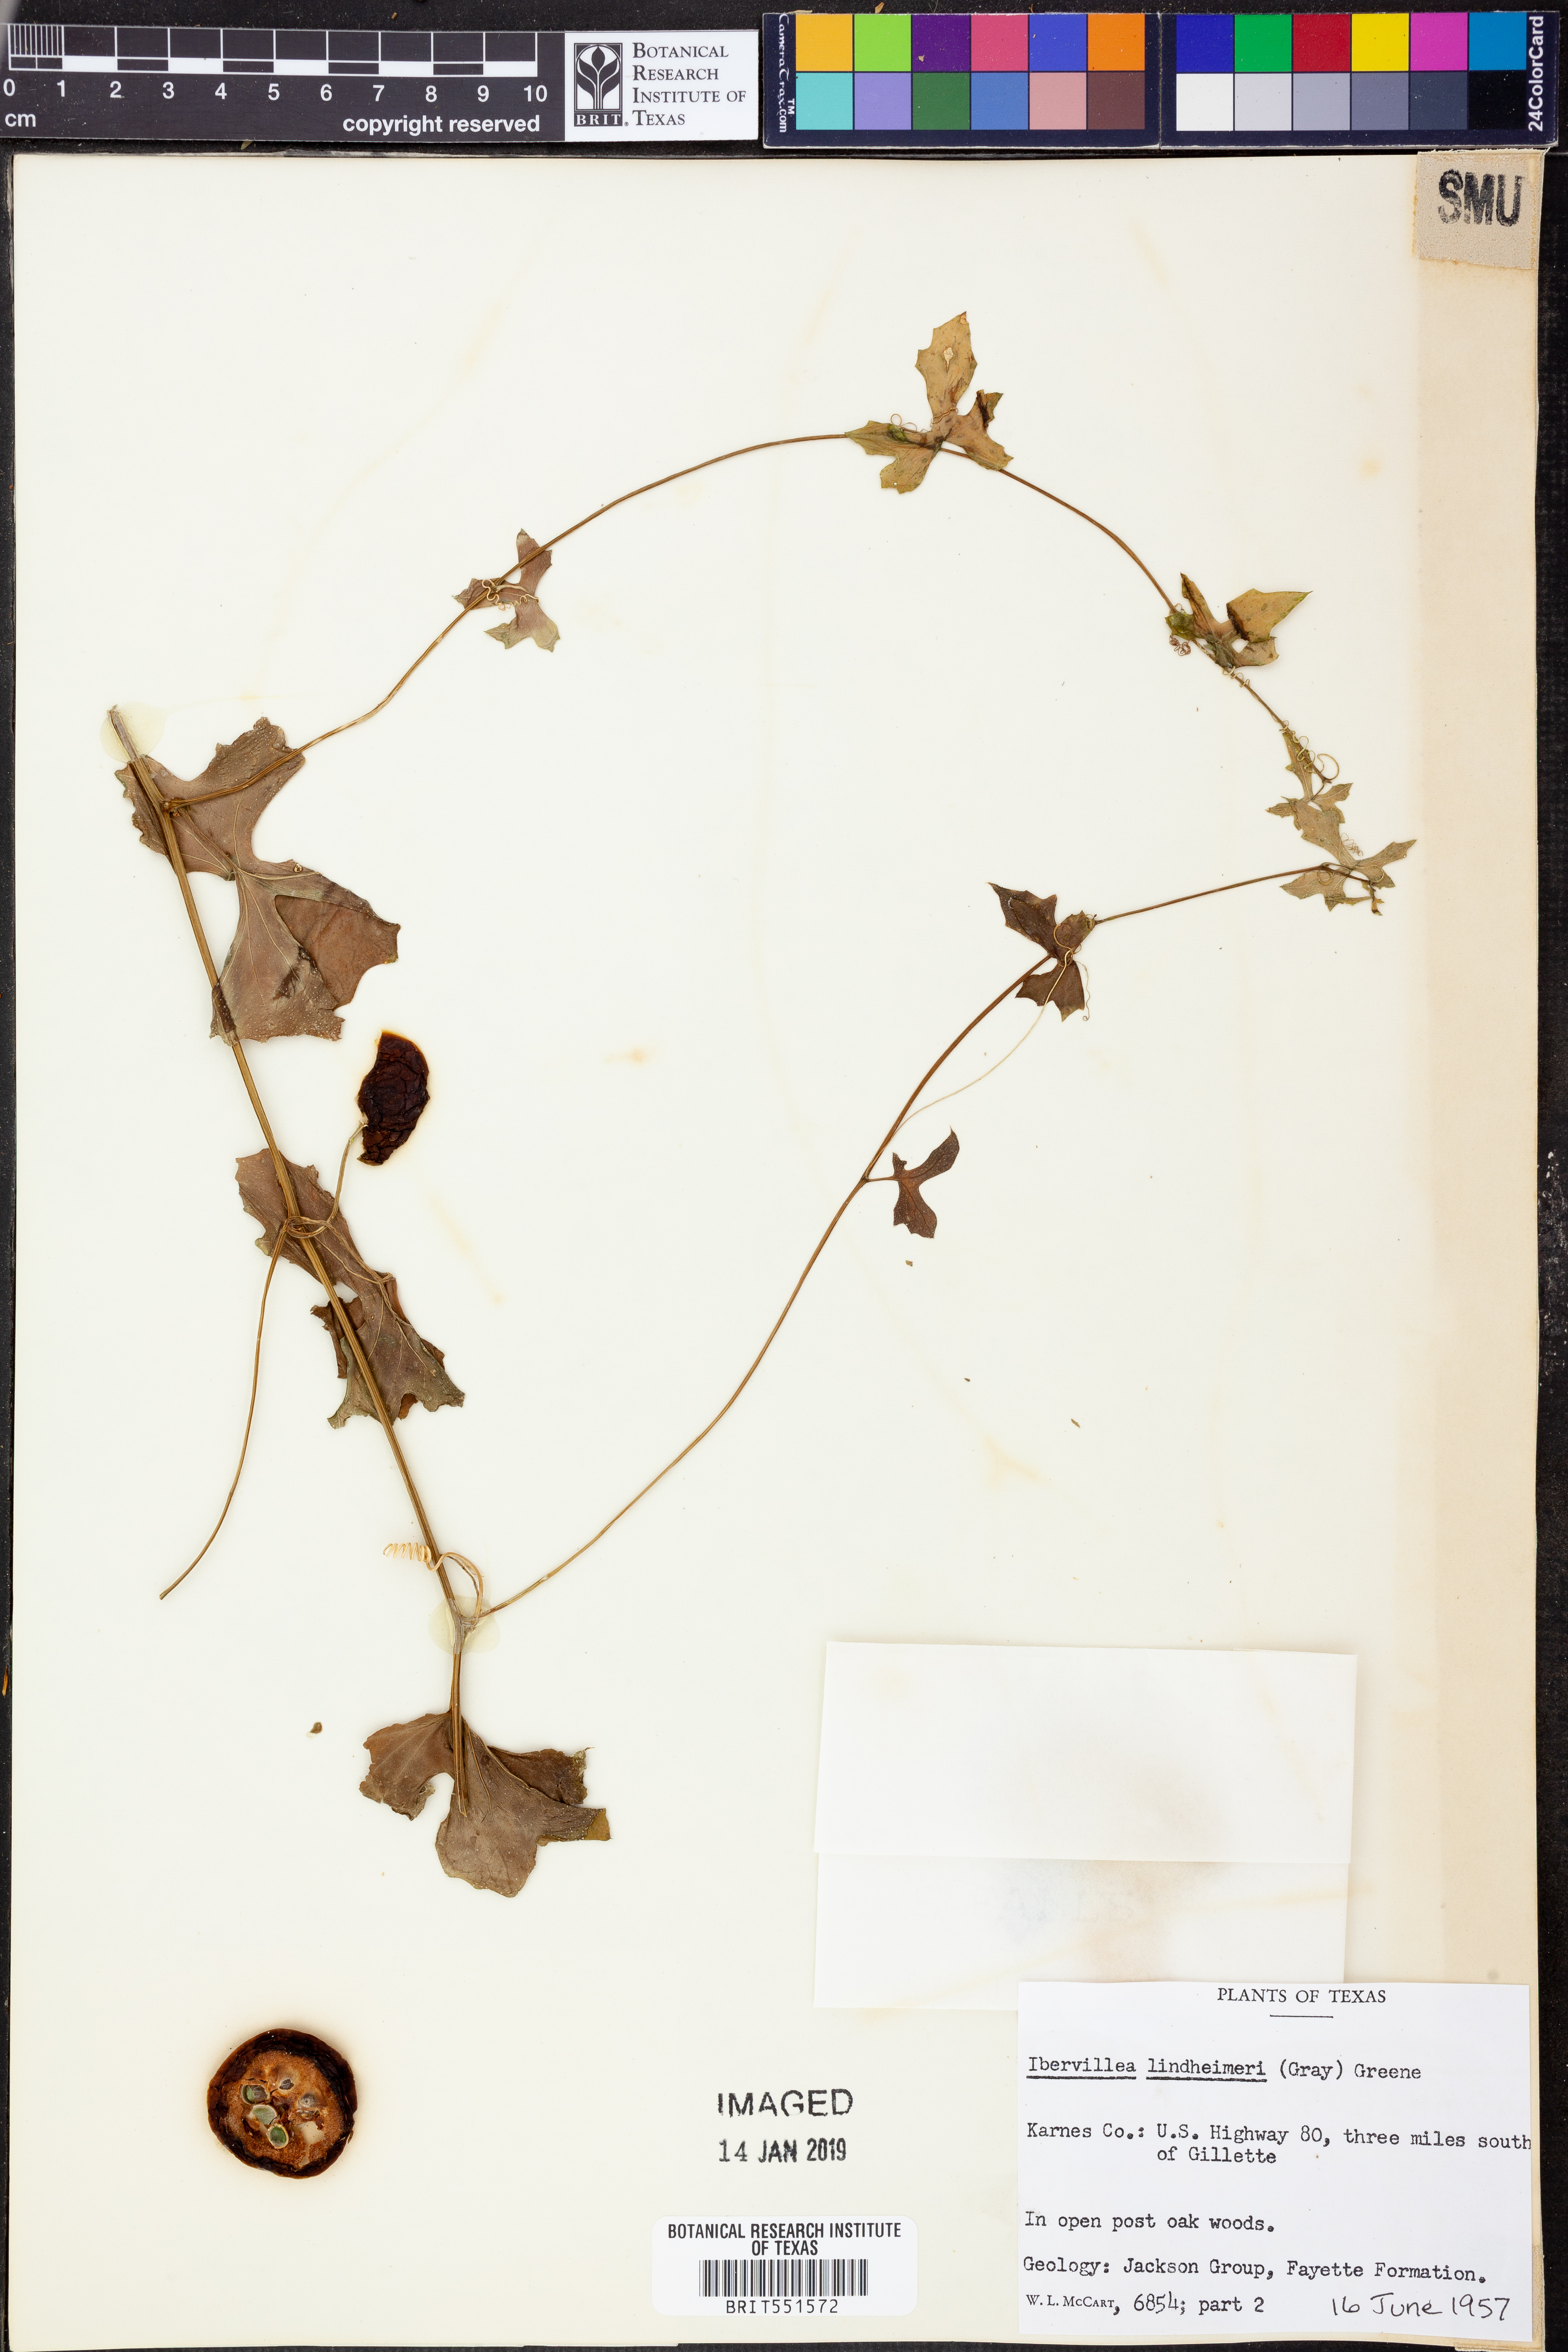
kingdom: Plantae
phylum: Tracheophyta
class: Magnoliopsida
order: Cucurbitales
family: Cucurbitaceae
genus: Ibervillea
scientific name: Ibervillea lindheimeri
